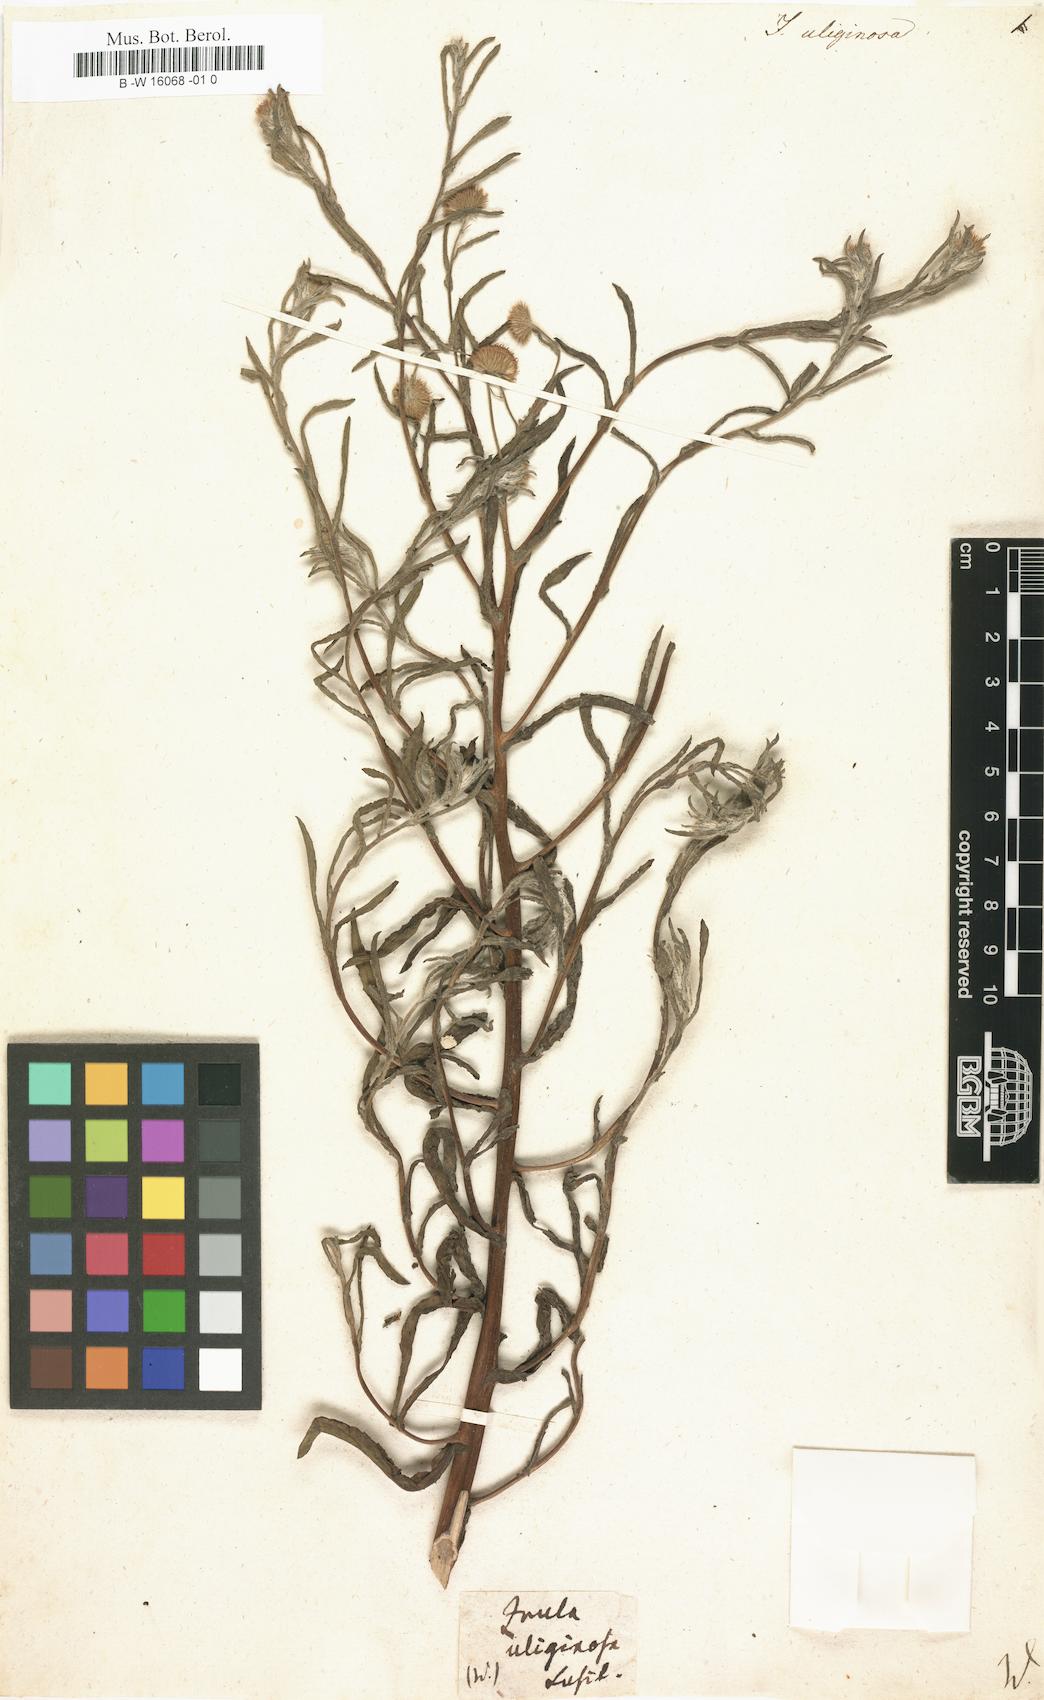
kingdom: Plantae
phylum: Tracheophyta
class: Magnoliopsida
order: Asterales
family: Asteraceae
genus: Inula
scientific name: Inula uliginosa
